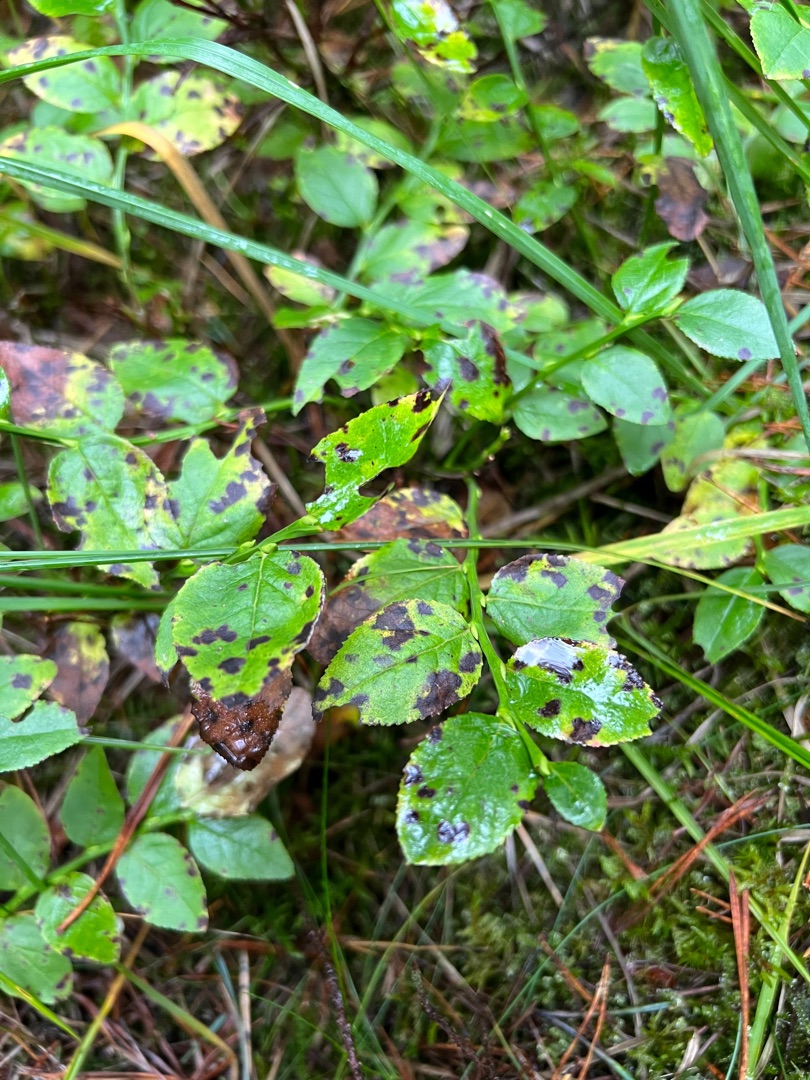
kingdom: Plantae
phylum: Tracheophyta
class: Magnoliopsida
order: Ericales
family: Ericaceae
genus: Vaccinium
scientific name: Vaccinium myrtillus
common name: Blåbær
